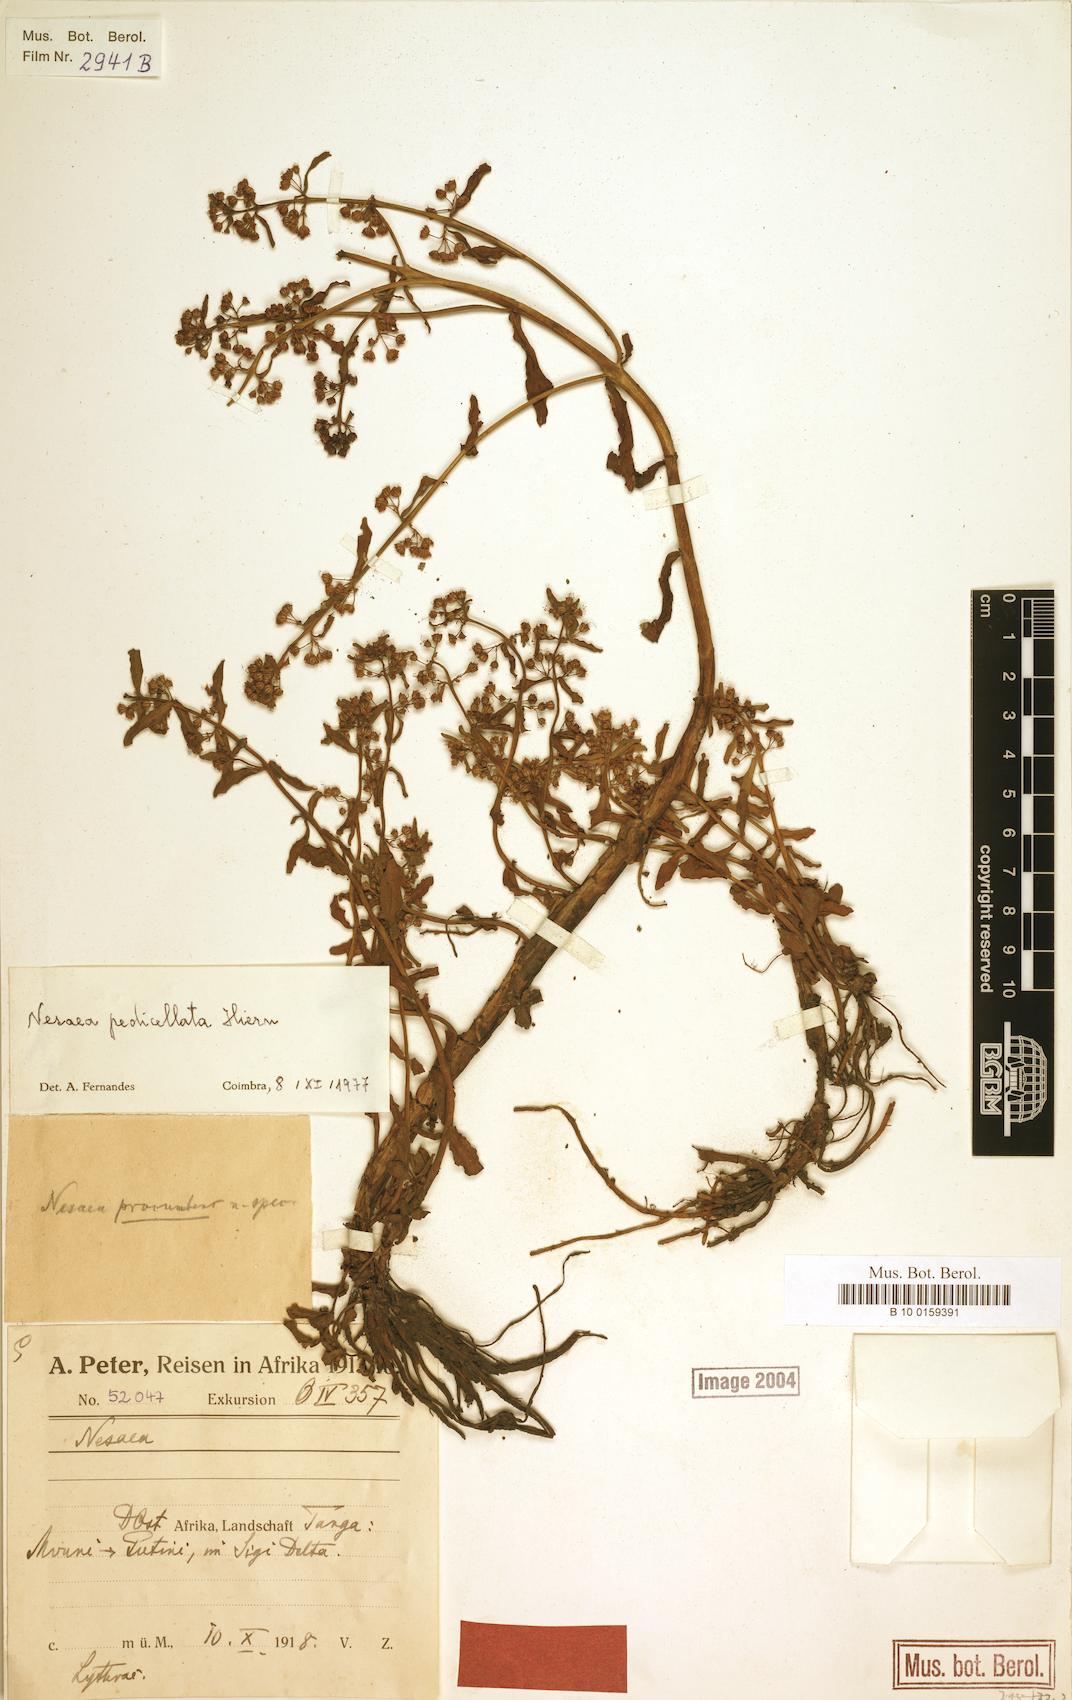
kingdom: Plantae
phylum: Tracheophyta
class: Magnoliopsida
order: Myrtales
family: Lythraceae
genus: Ammannia
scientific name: Ammannia pedicellata
